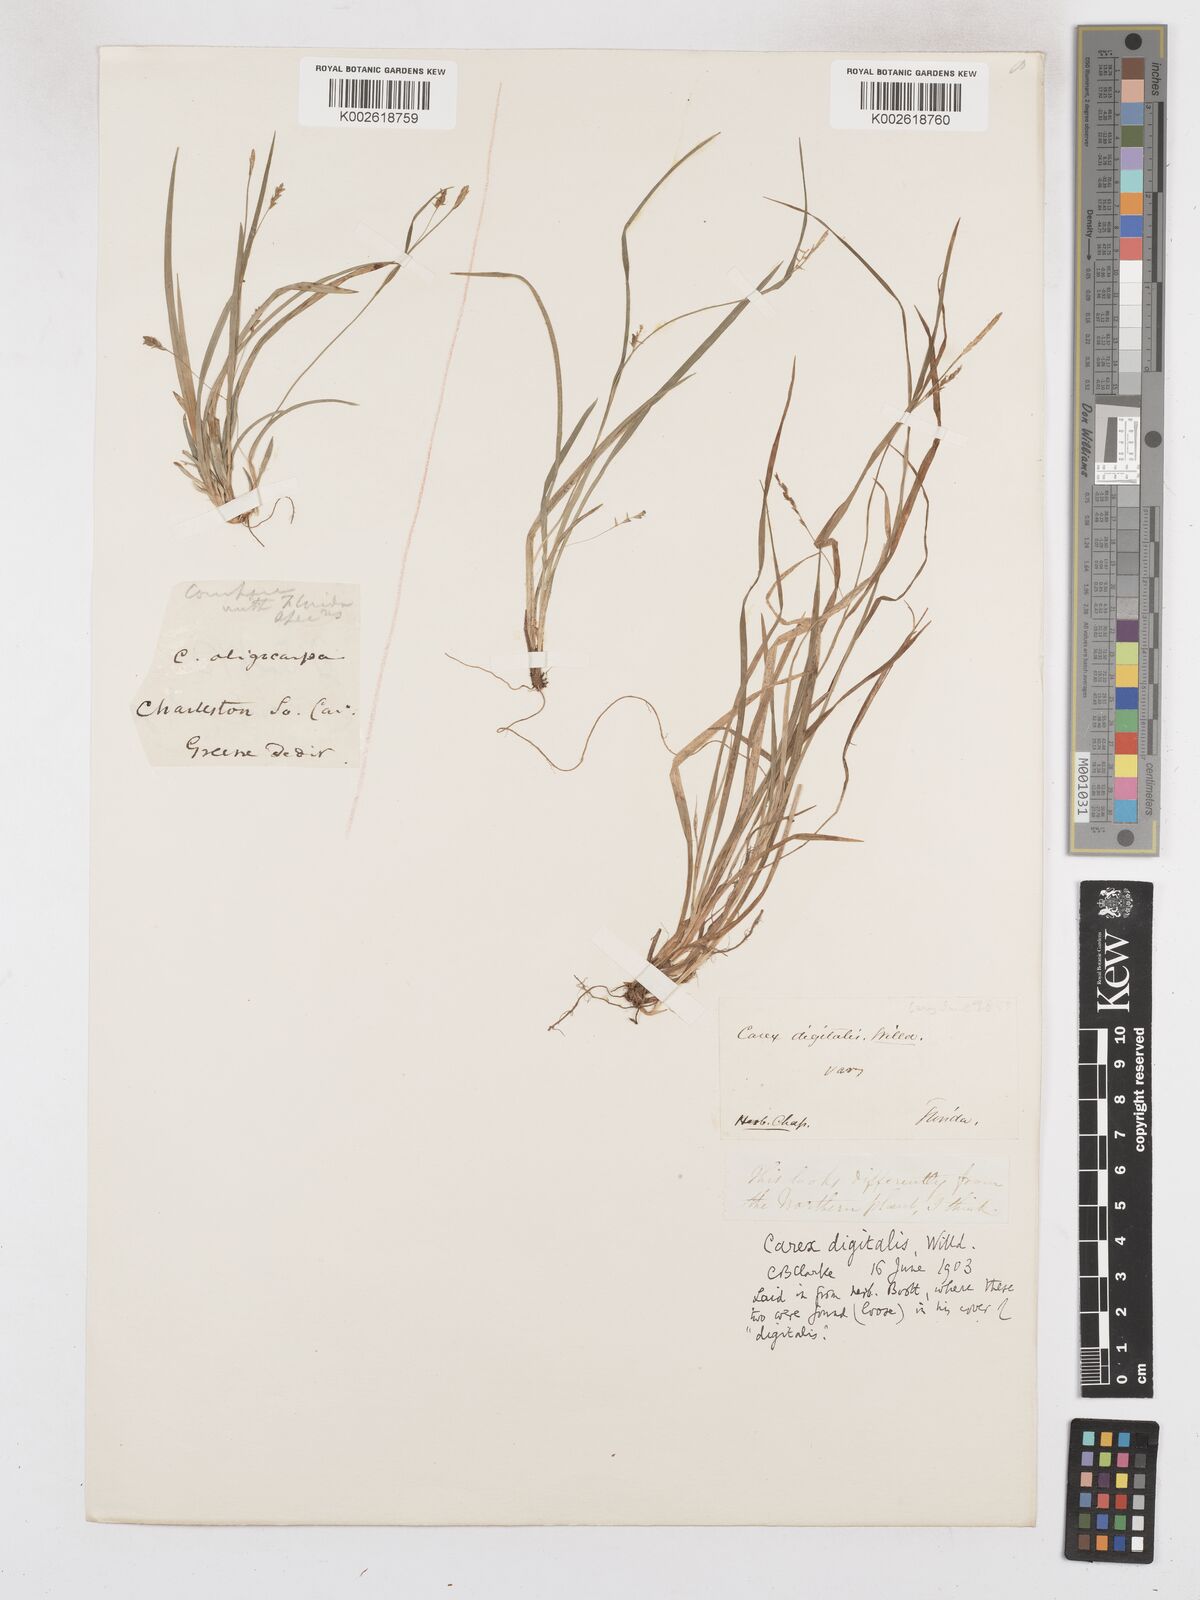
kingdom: Plantae
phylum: Tracheophyta
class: Liliopsida
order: Poales
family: Cyperaceae
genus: Carex
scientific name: Carex abscondita
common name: Thicket sedge
